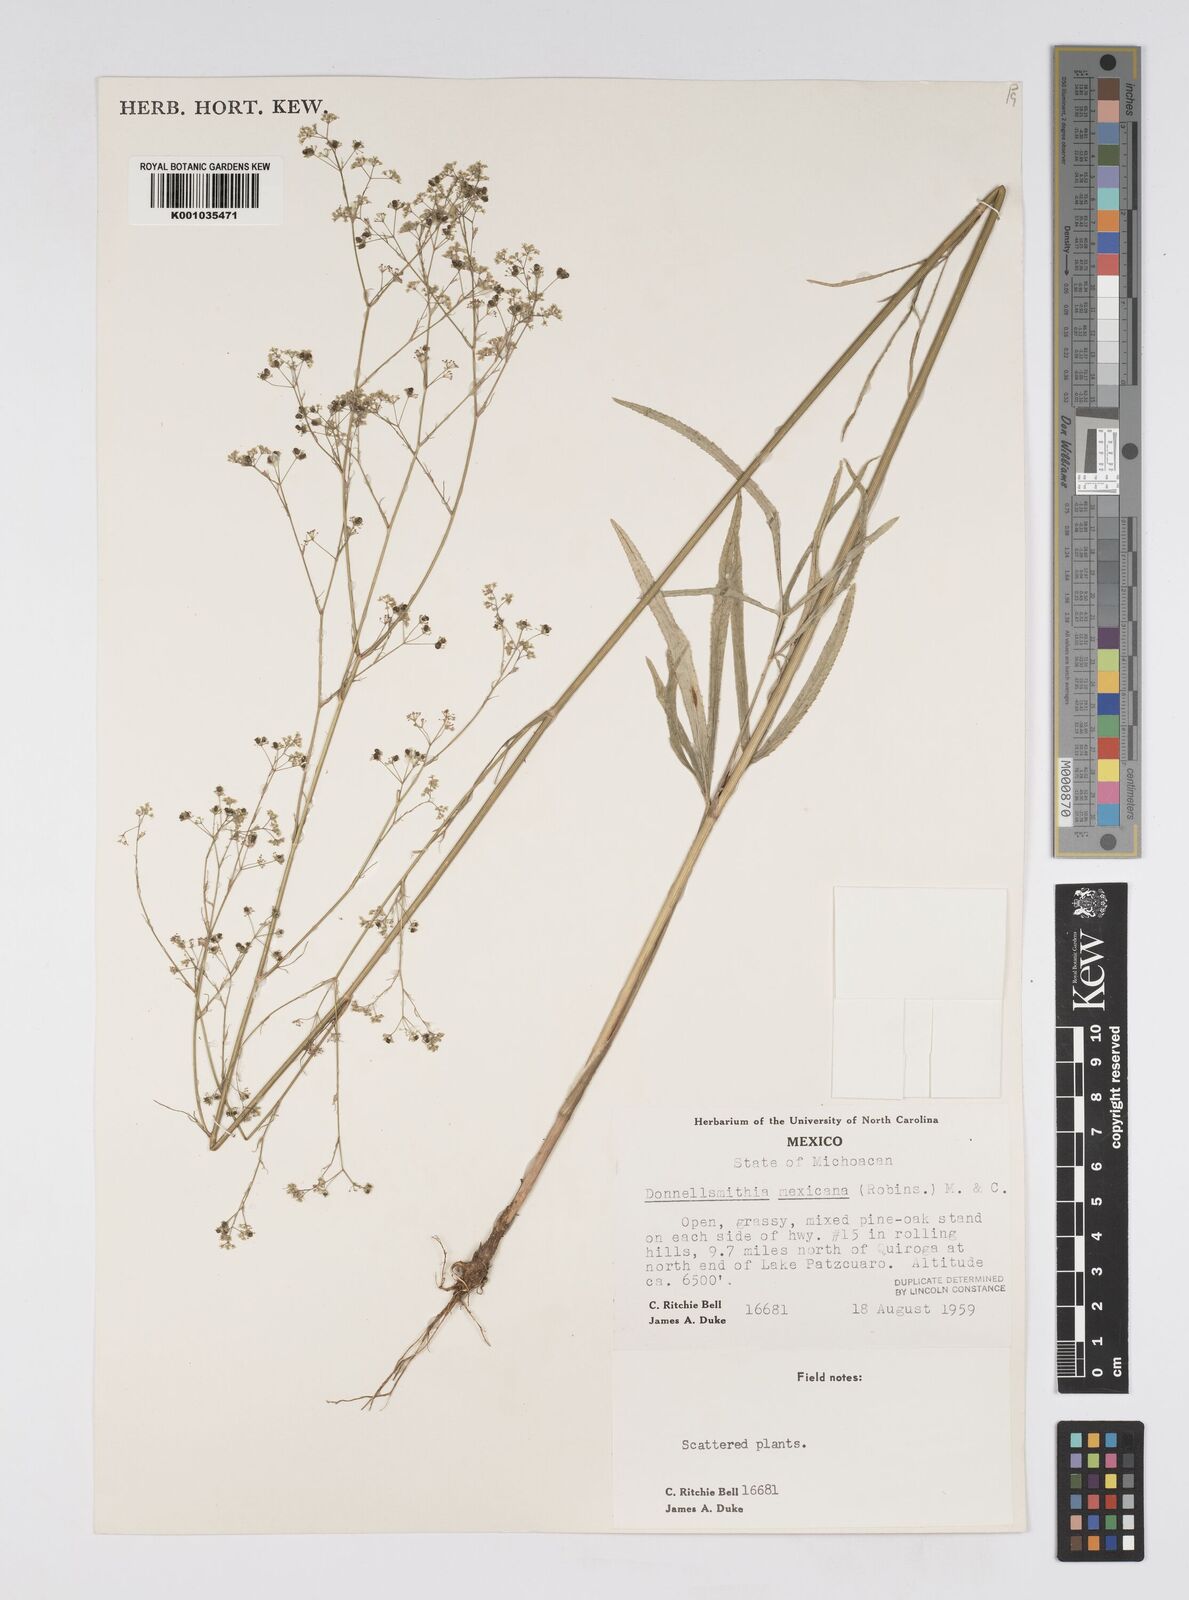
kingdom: Plantae
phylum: Tracheophyta
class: Magnoliopsida
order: Apiales
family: Apiaceae
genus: Donnellsmithia
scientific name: Donnellsmithia mexicana
